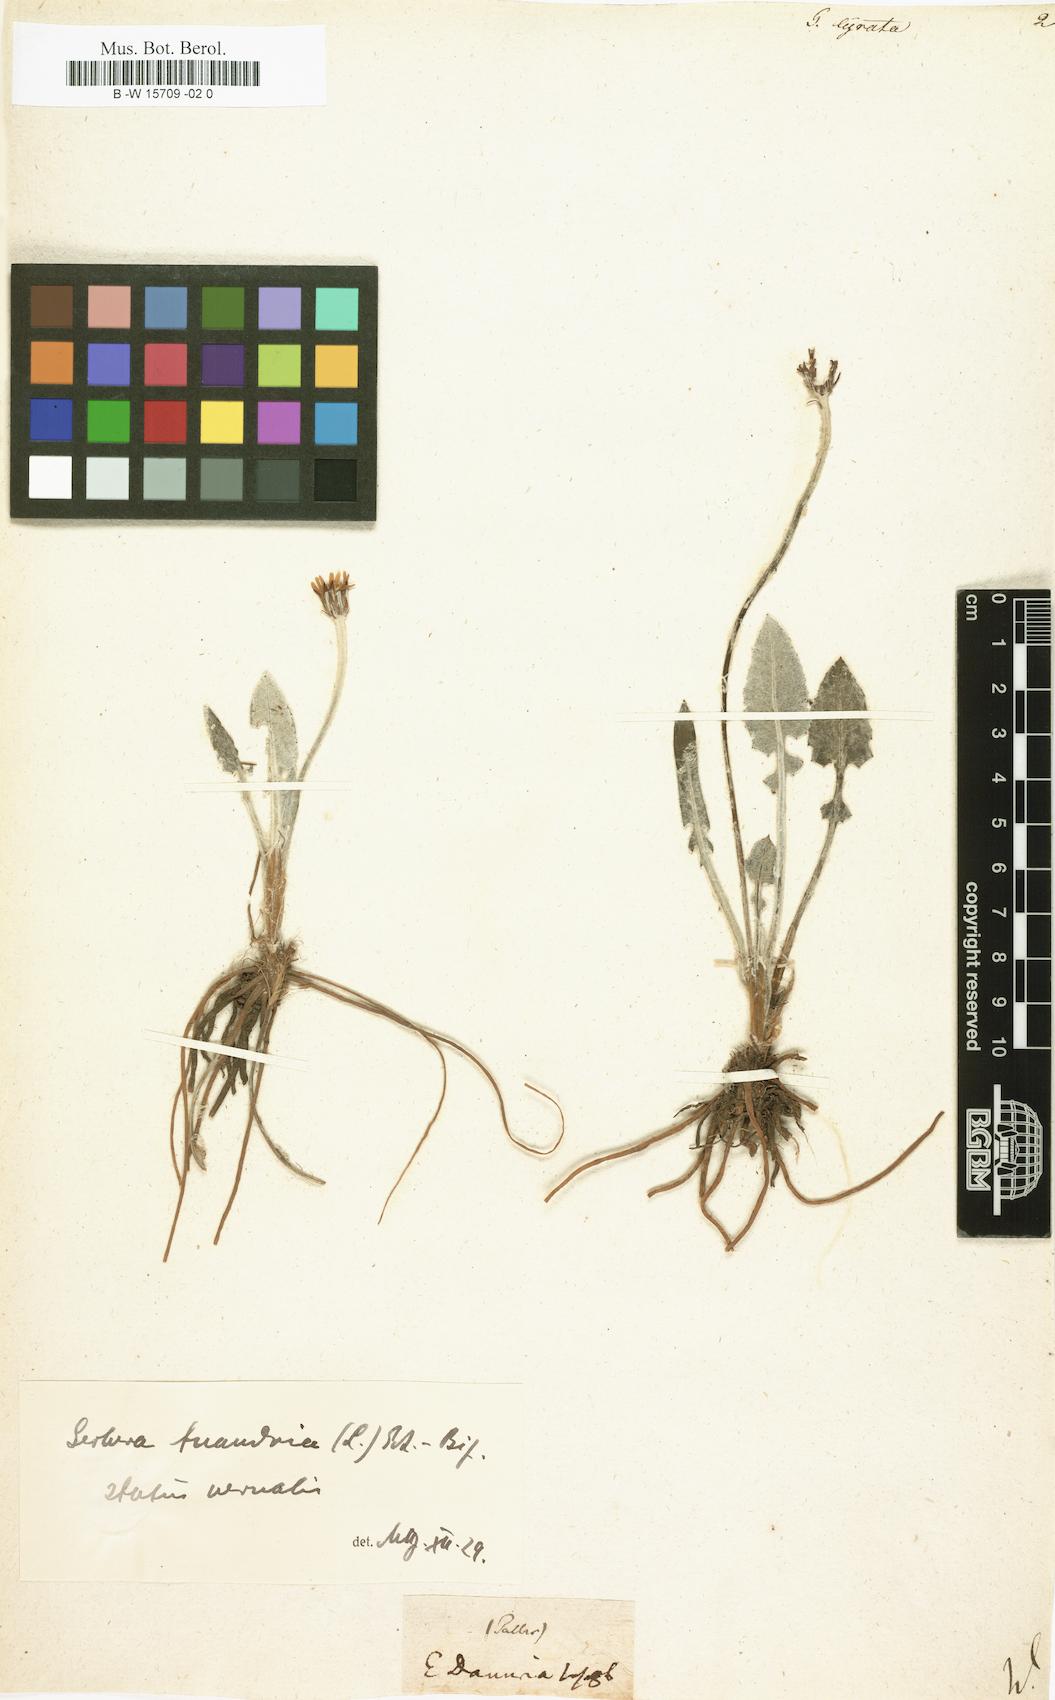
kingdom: Plantae
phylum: Tracheophyta
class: Magnoliopsida
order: Asterales
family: Asteraceae
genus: Leibnitzia
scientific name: Leibnitzia anandria
